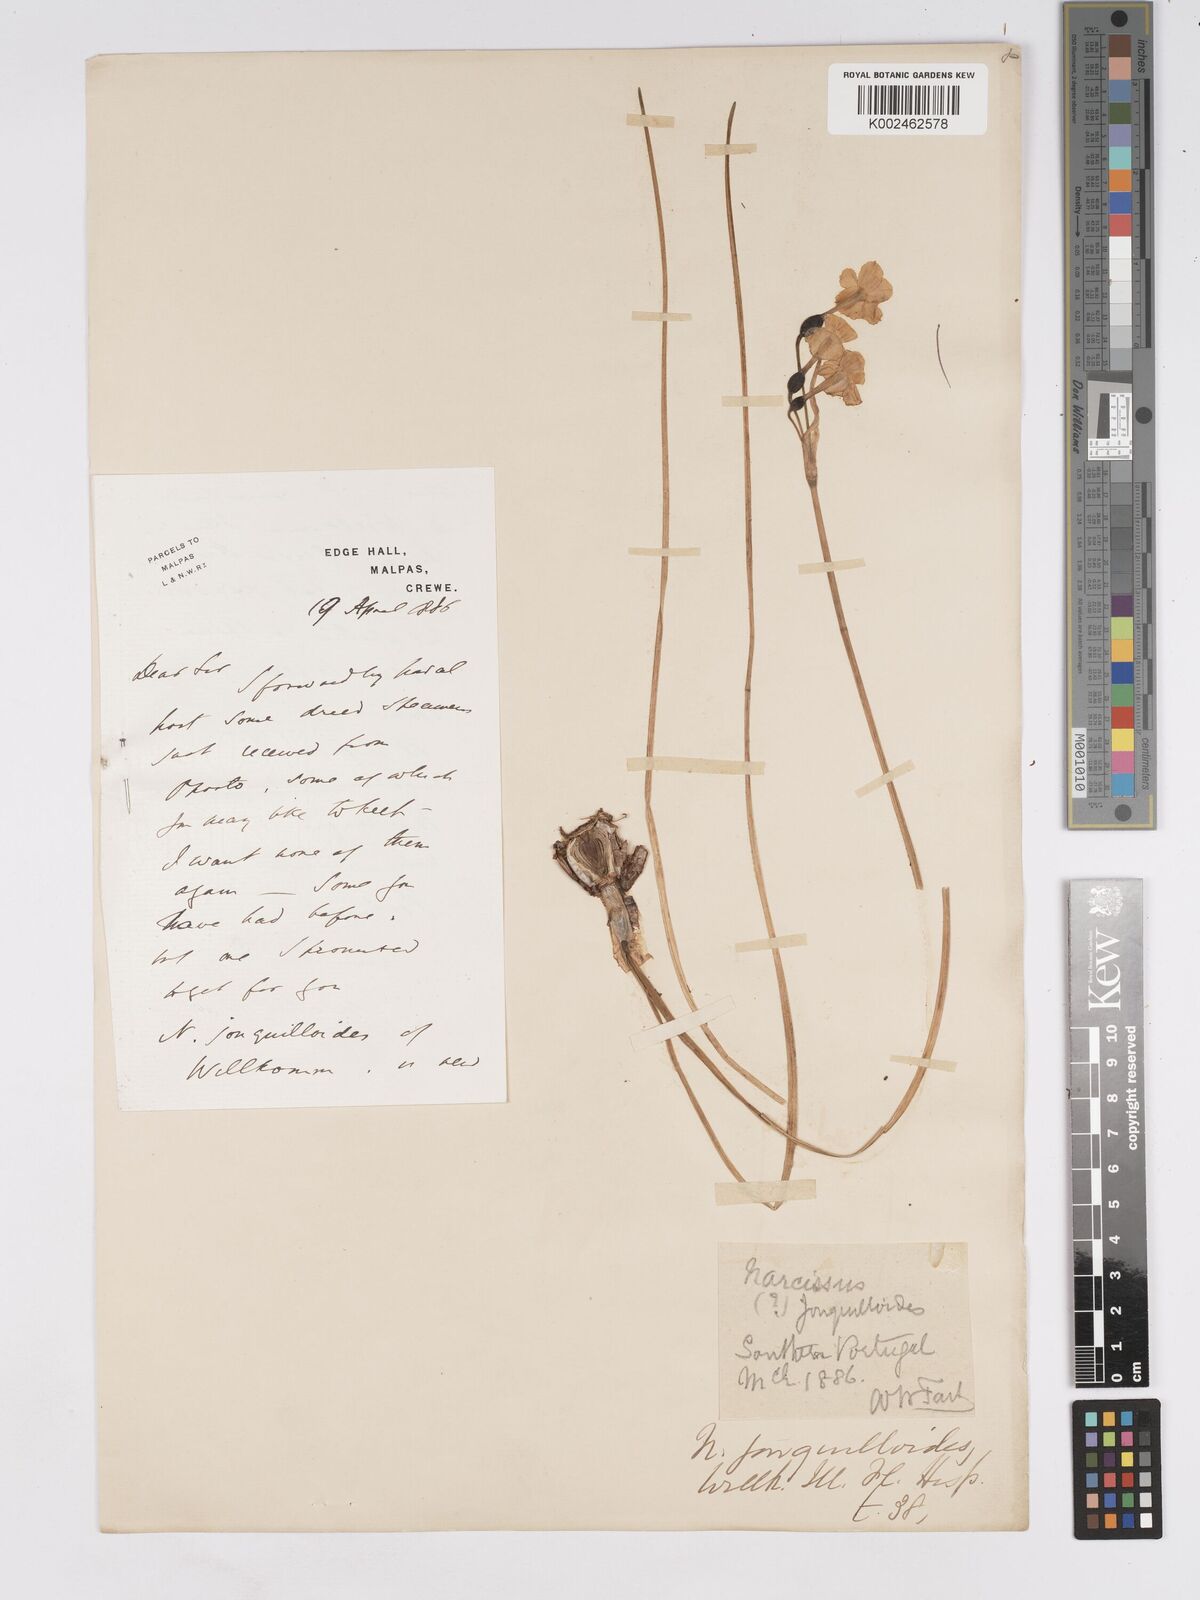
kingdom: Plantae
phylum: Tracheophyta
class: Liliopsida
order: Asparagales
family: Amaryllidaceae
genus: Narcissus
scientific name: Narcissus willkommii
